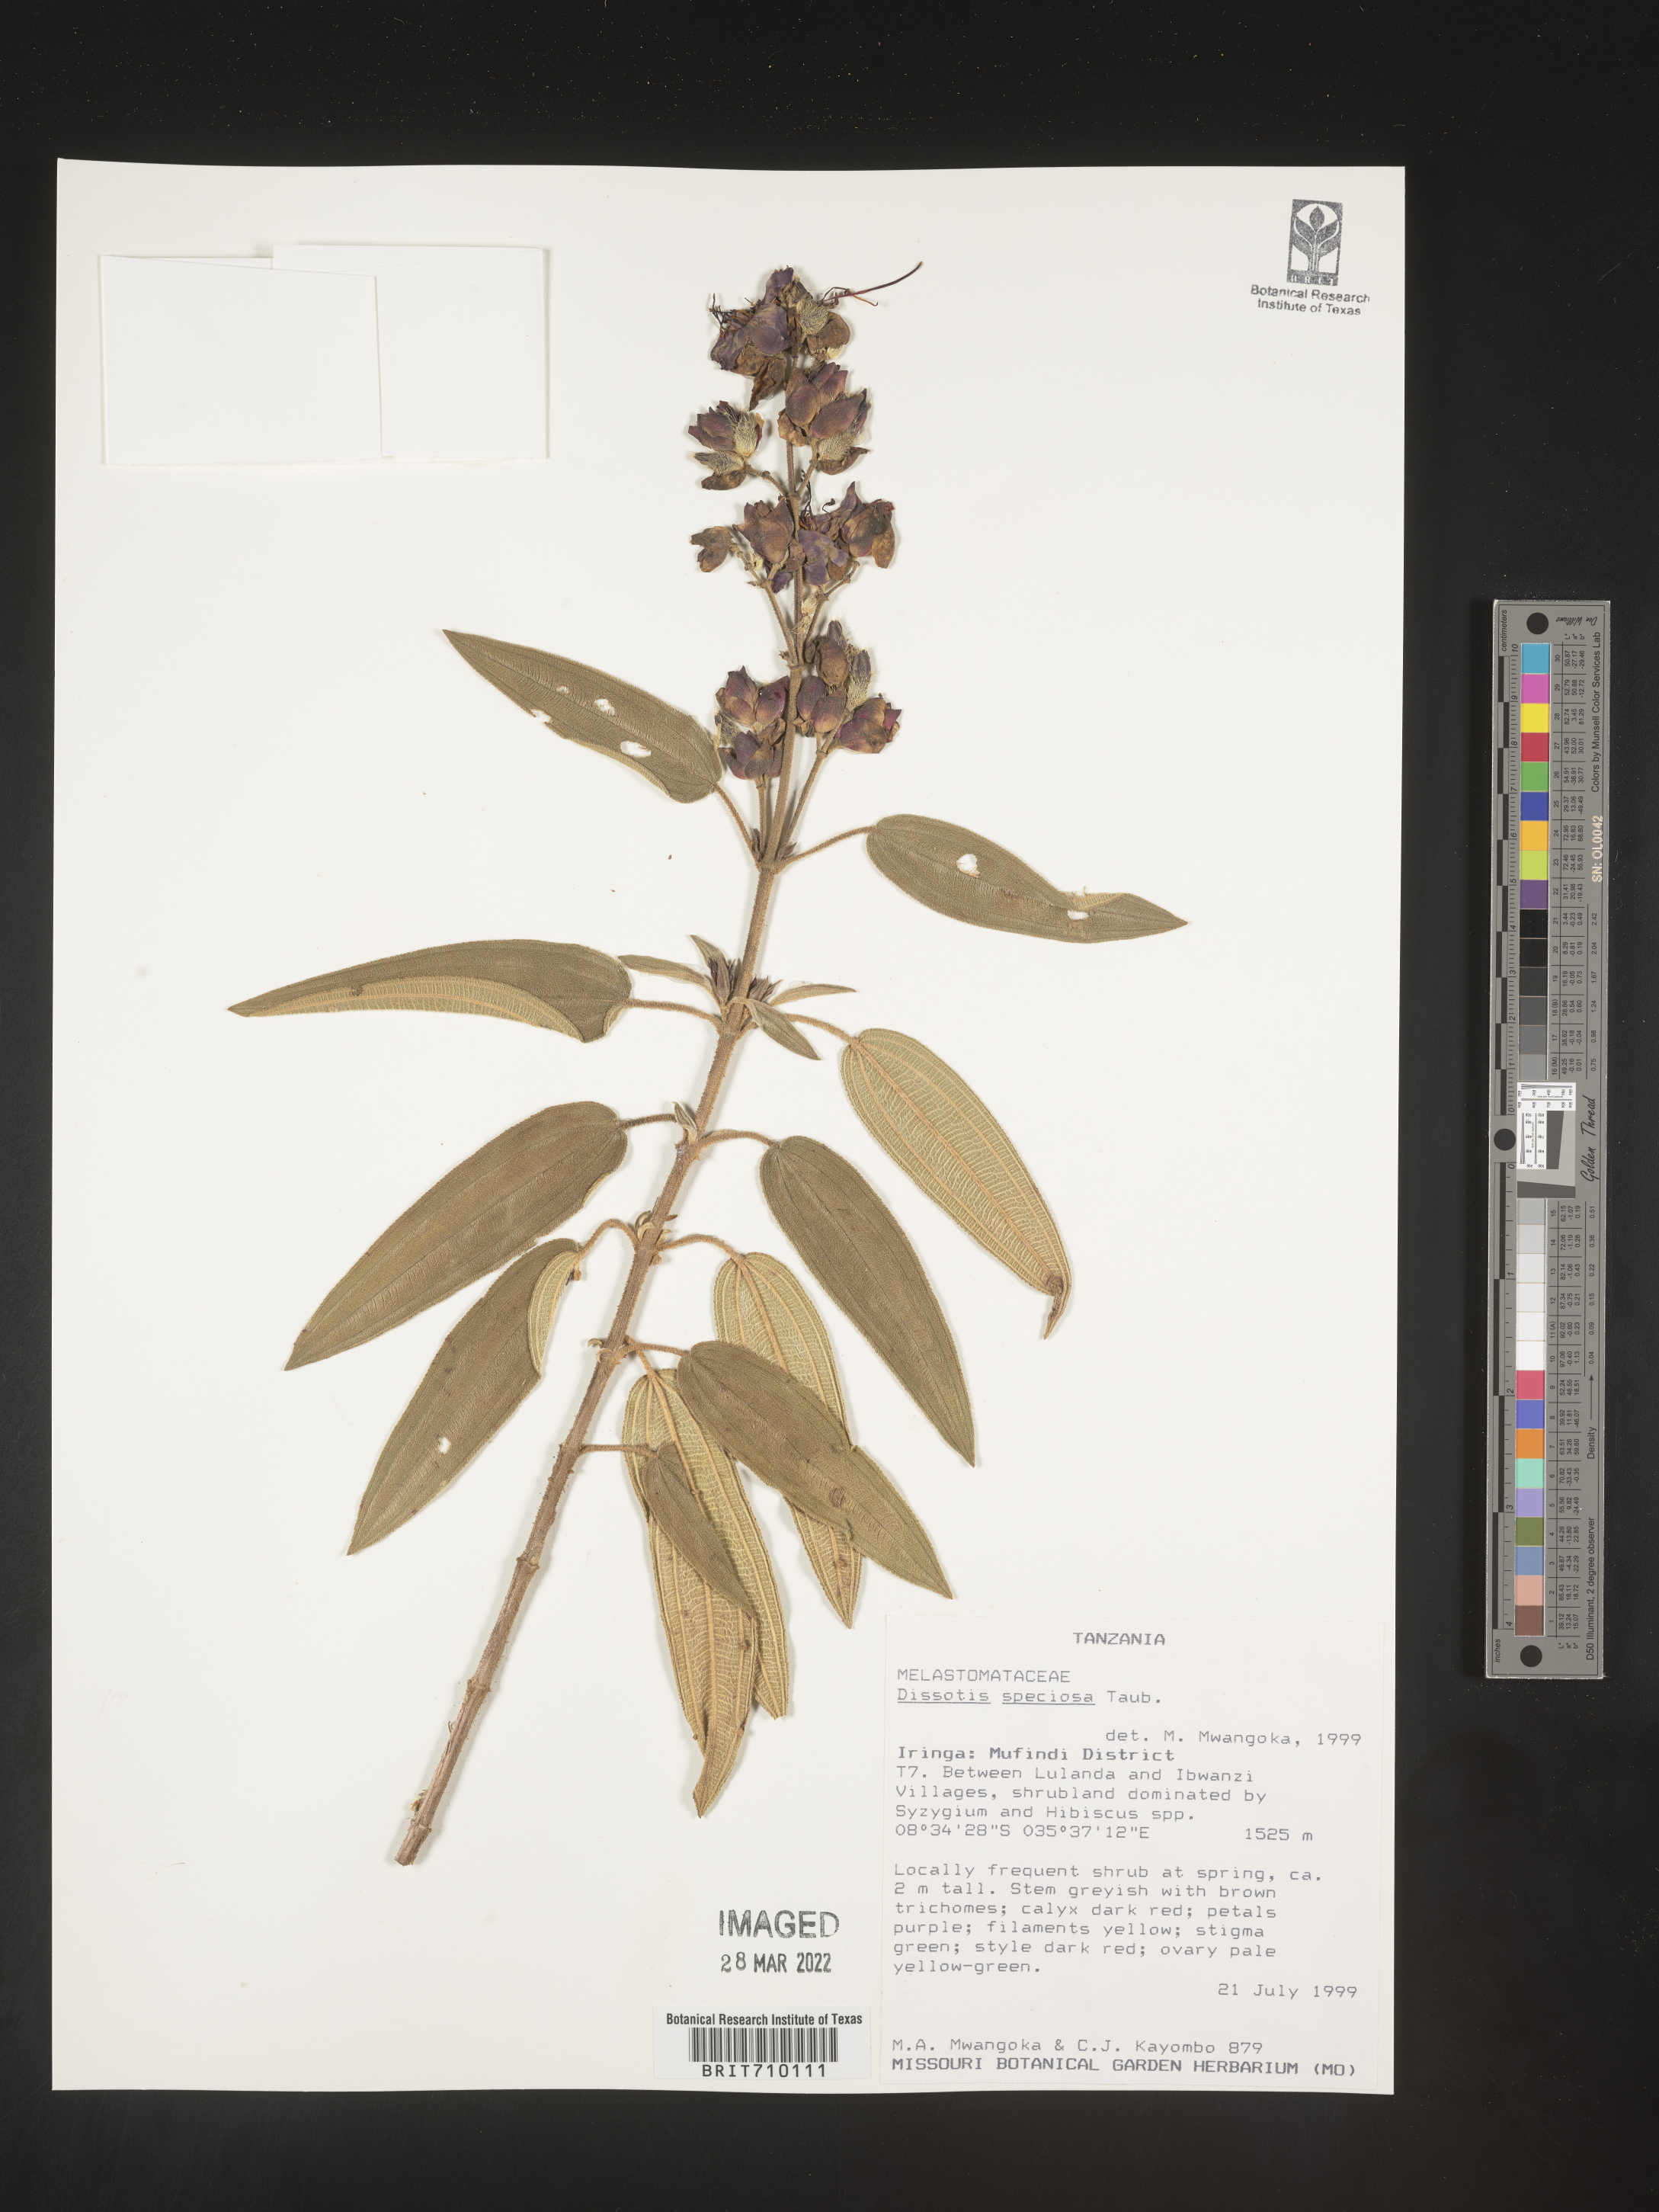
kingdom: Plantae
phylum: Tracheophyta
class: Magnoliopsida
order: Myrtales
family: Melastomataceae
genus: Dissotis
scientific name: Dissotis
